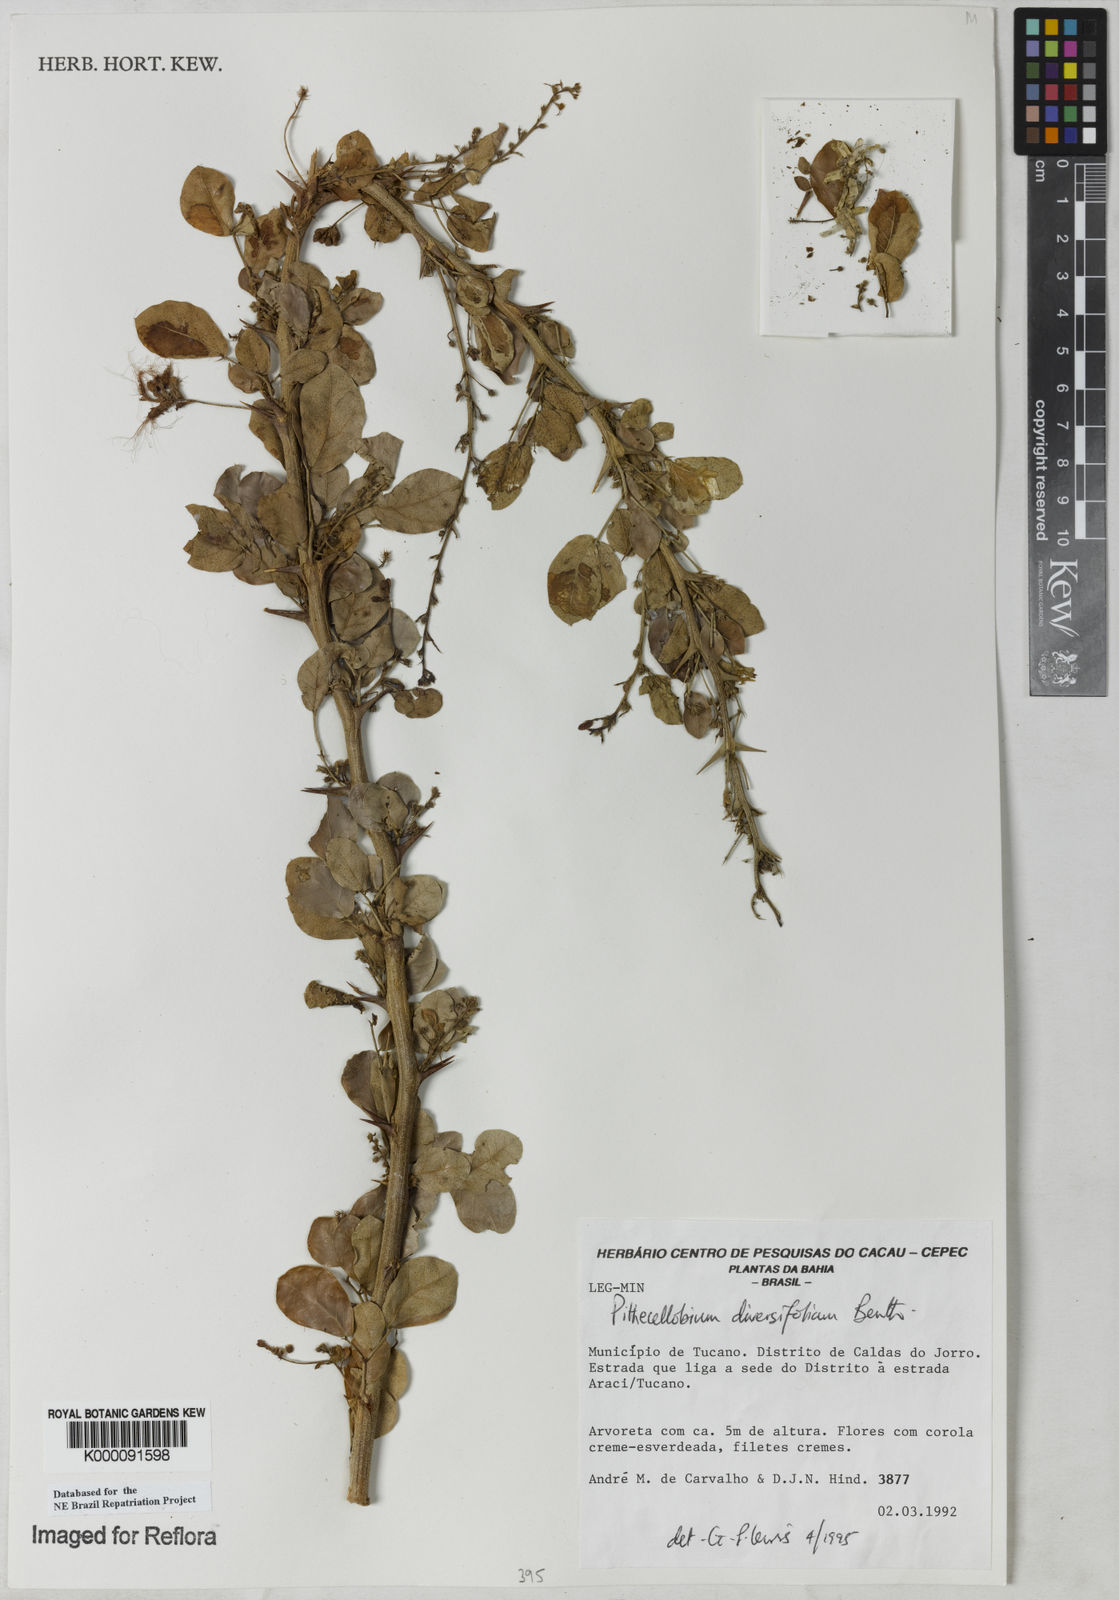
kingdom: Plantae
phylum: Tracheophyta
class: Magnoliopsida
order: Fabales
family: Fabaceae
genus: Pithecellobium
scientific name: Pithecellobium diversifolium
